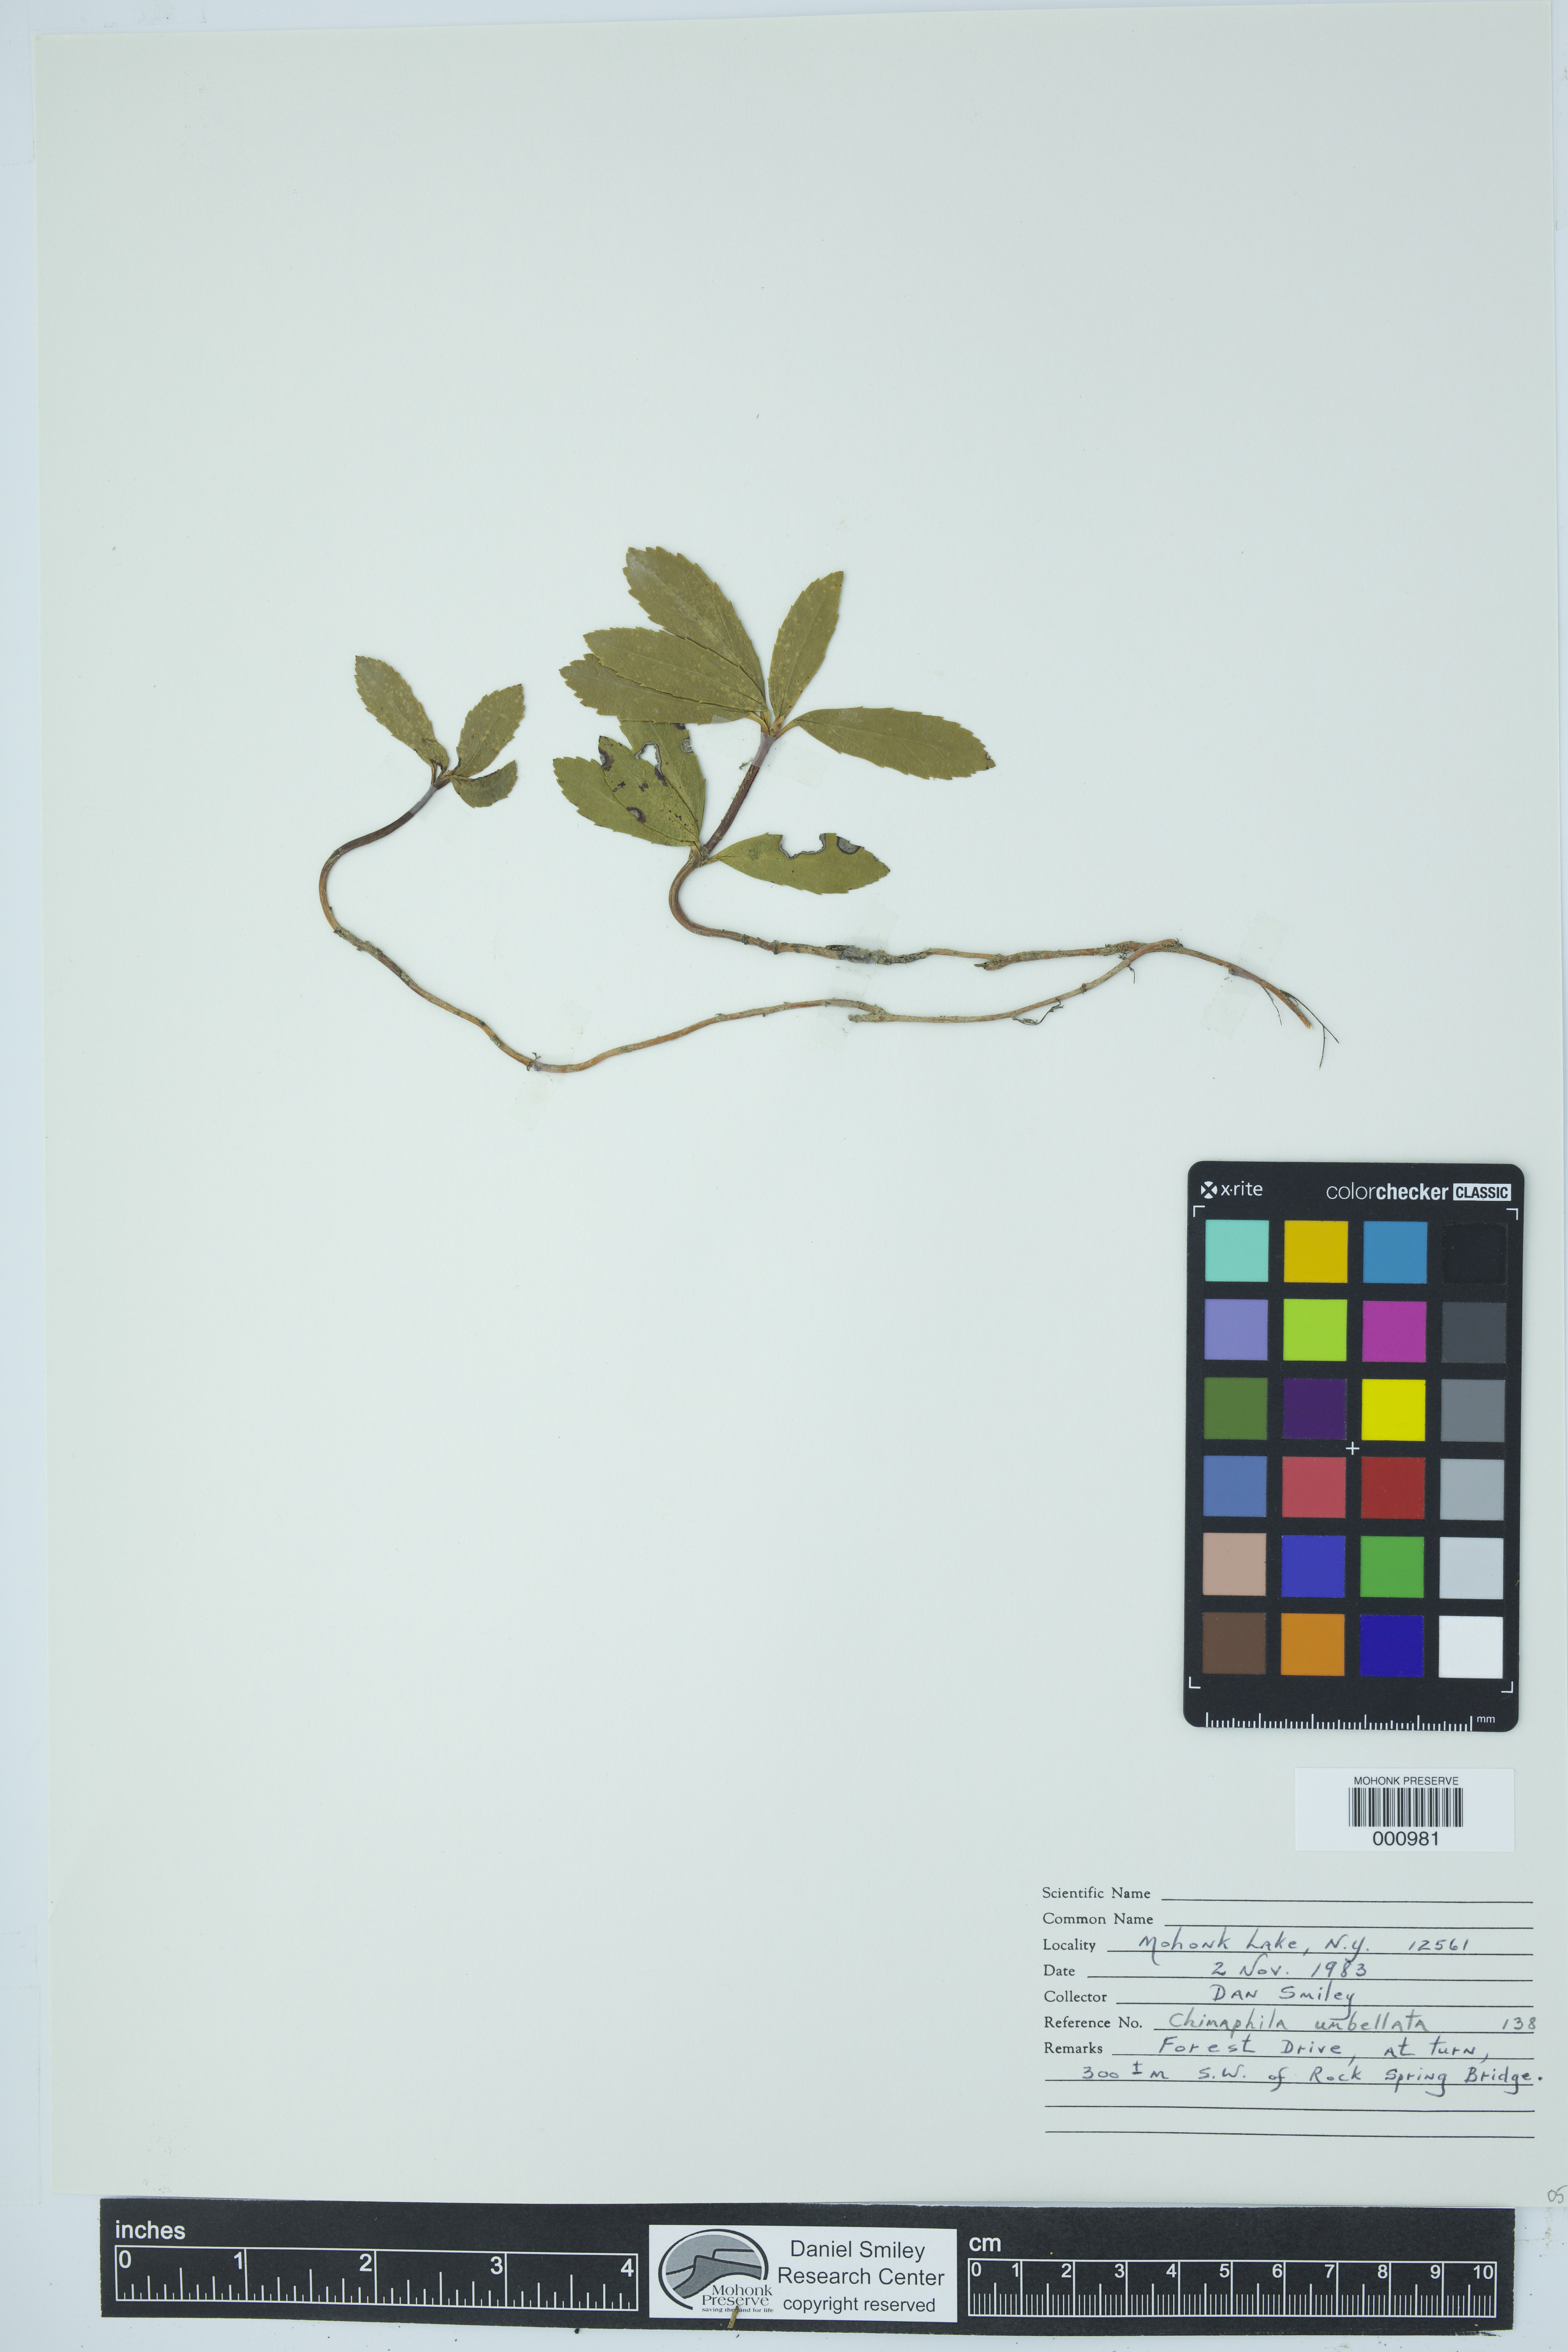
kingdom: Plantae
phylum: Tracheophyta
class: Magnoliopsida
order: Ericales
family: Ericaceae
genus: Chimaphila
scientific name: Chimaphila umbellata
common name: Pipsissewa
